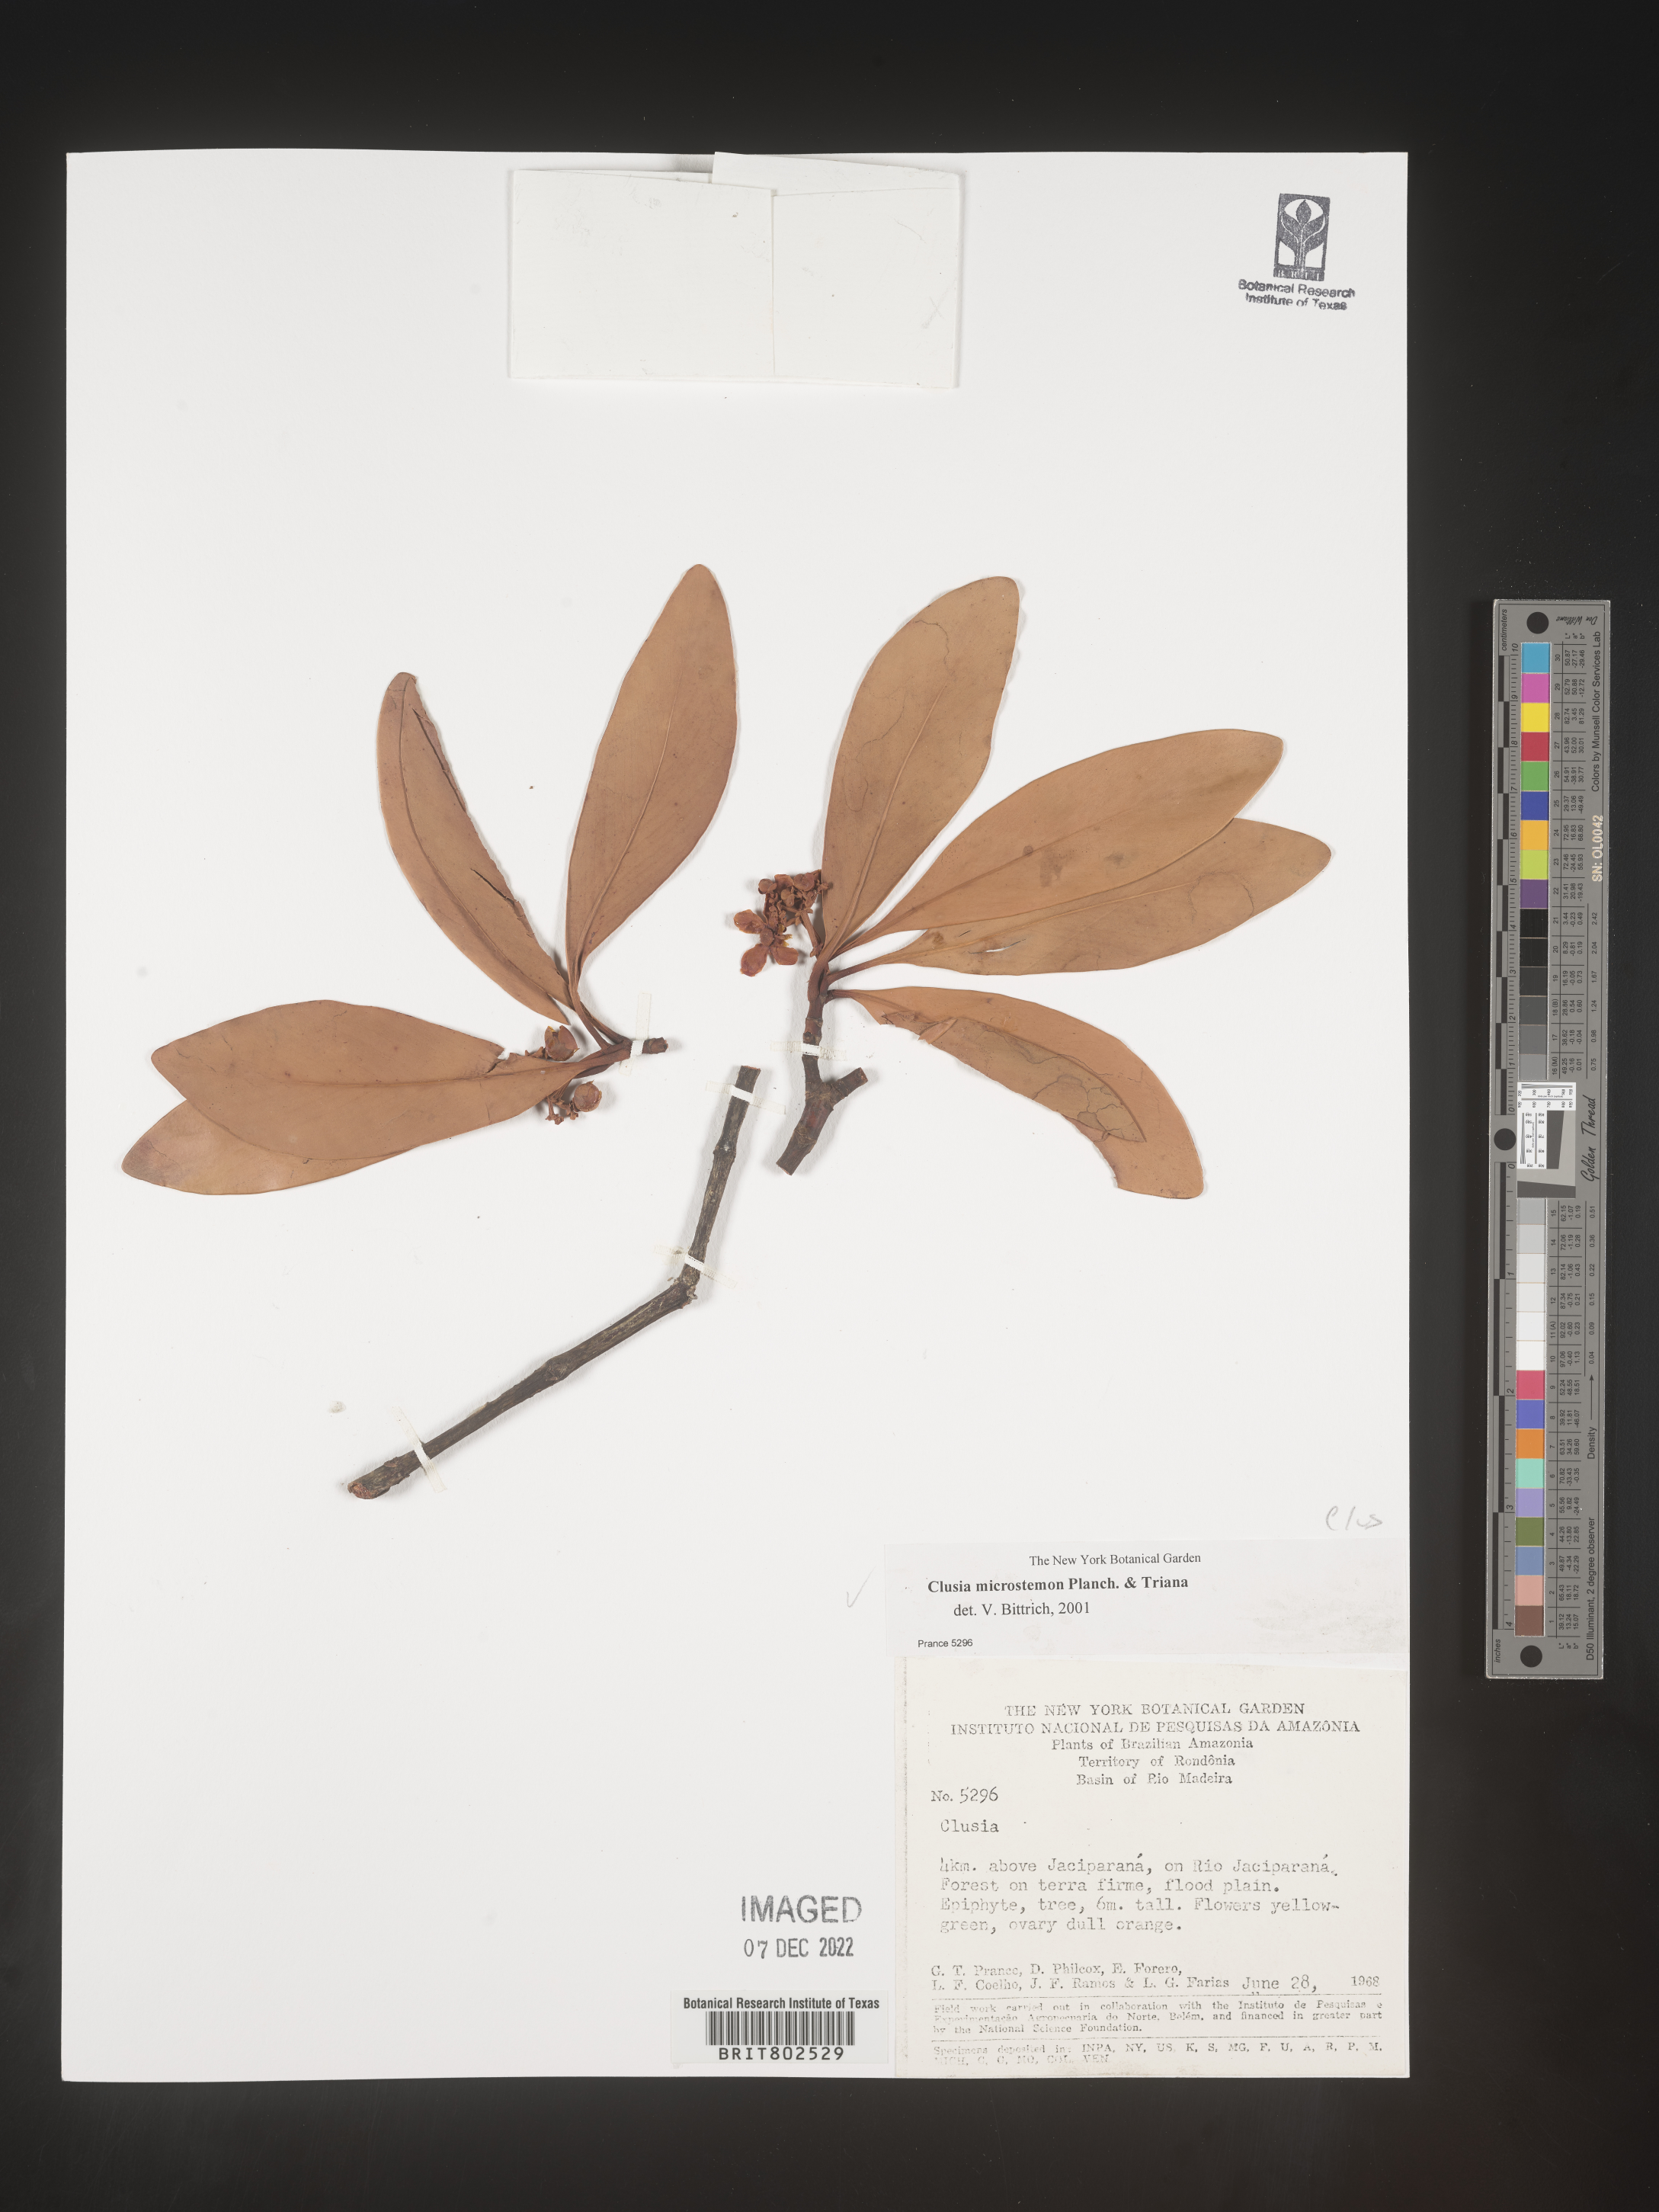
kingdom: Plantae
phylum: Tracheophyta
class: Magnoliopsida
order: Malpighiales
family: Clusiaceae
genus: Clusia
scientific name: Clusia microstemon
